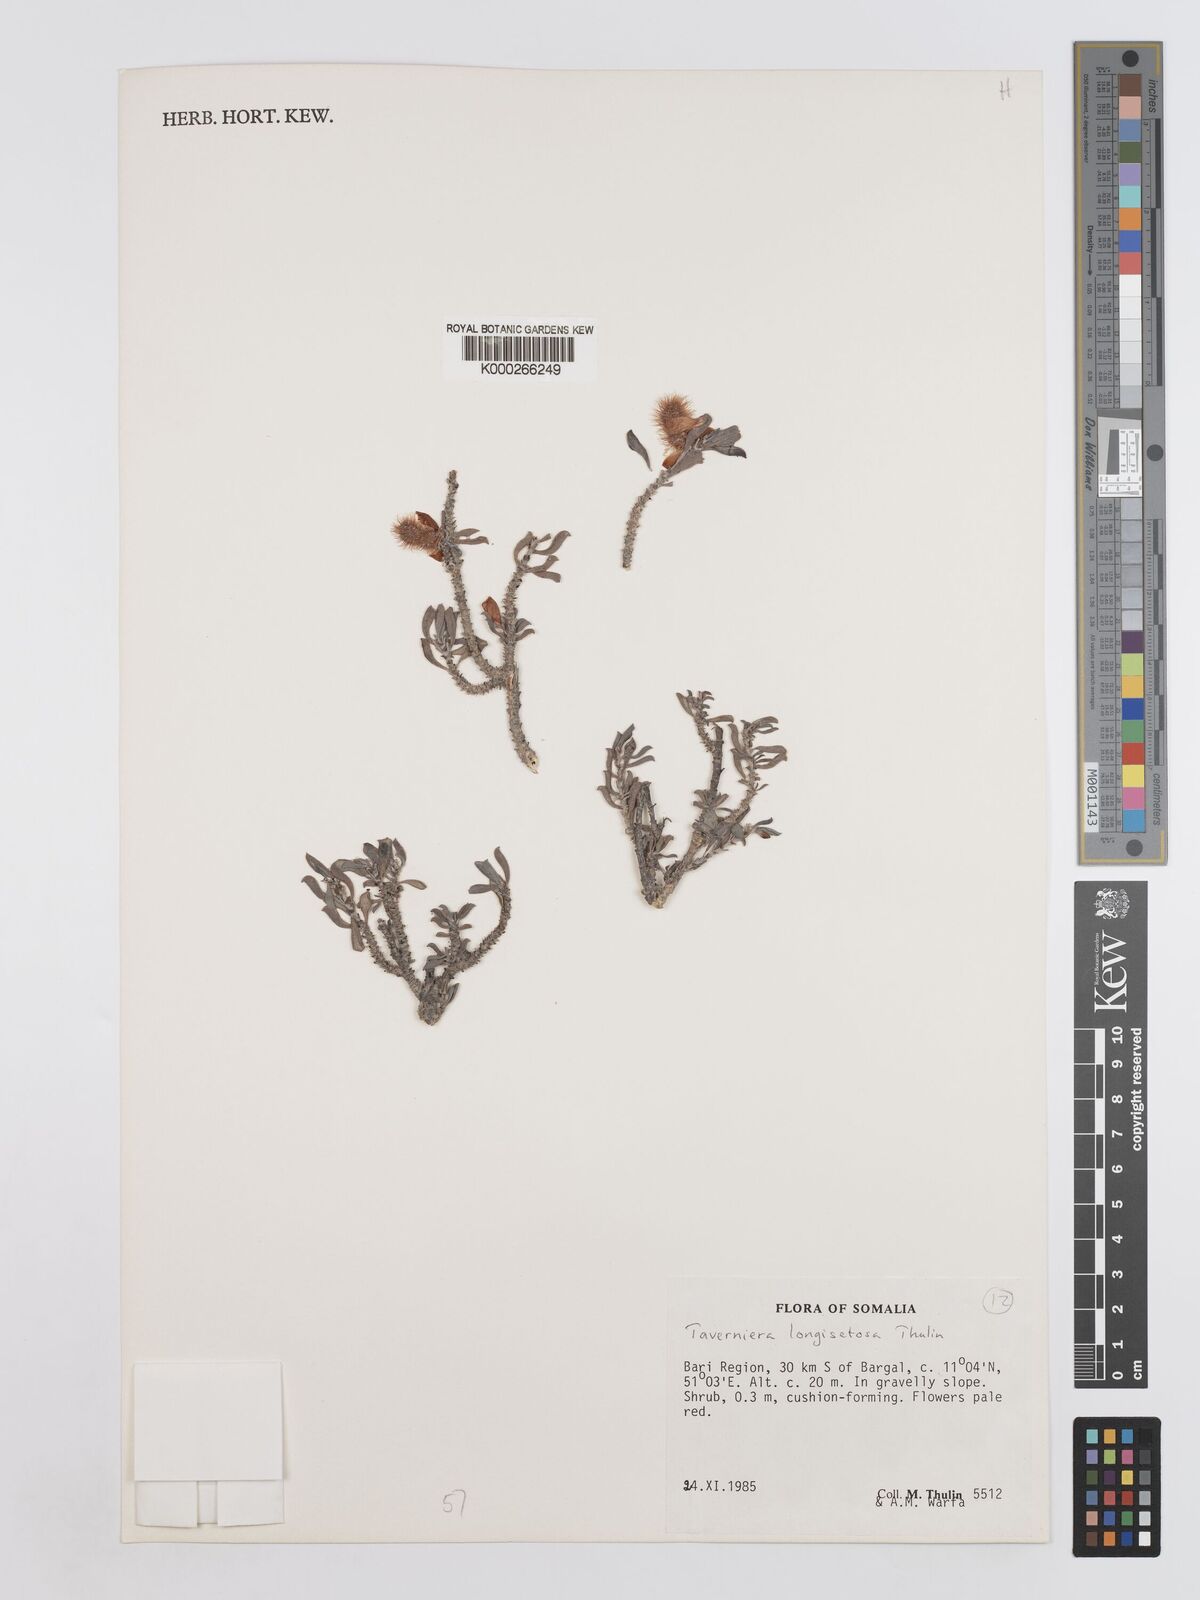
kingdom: Plantae
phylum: Tracheophyta
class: Magnoliopsida
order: Fabales
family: Fabaceae
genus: Taverniera
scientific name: Taverniera longisetosa
